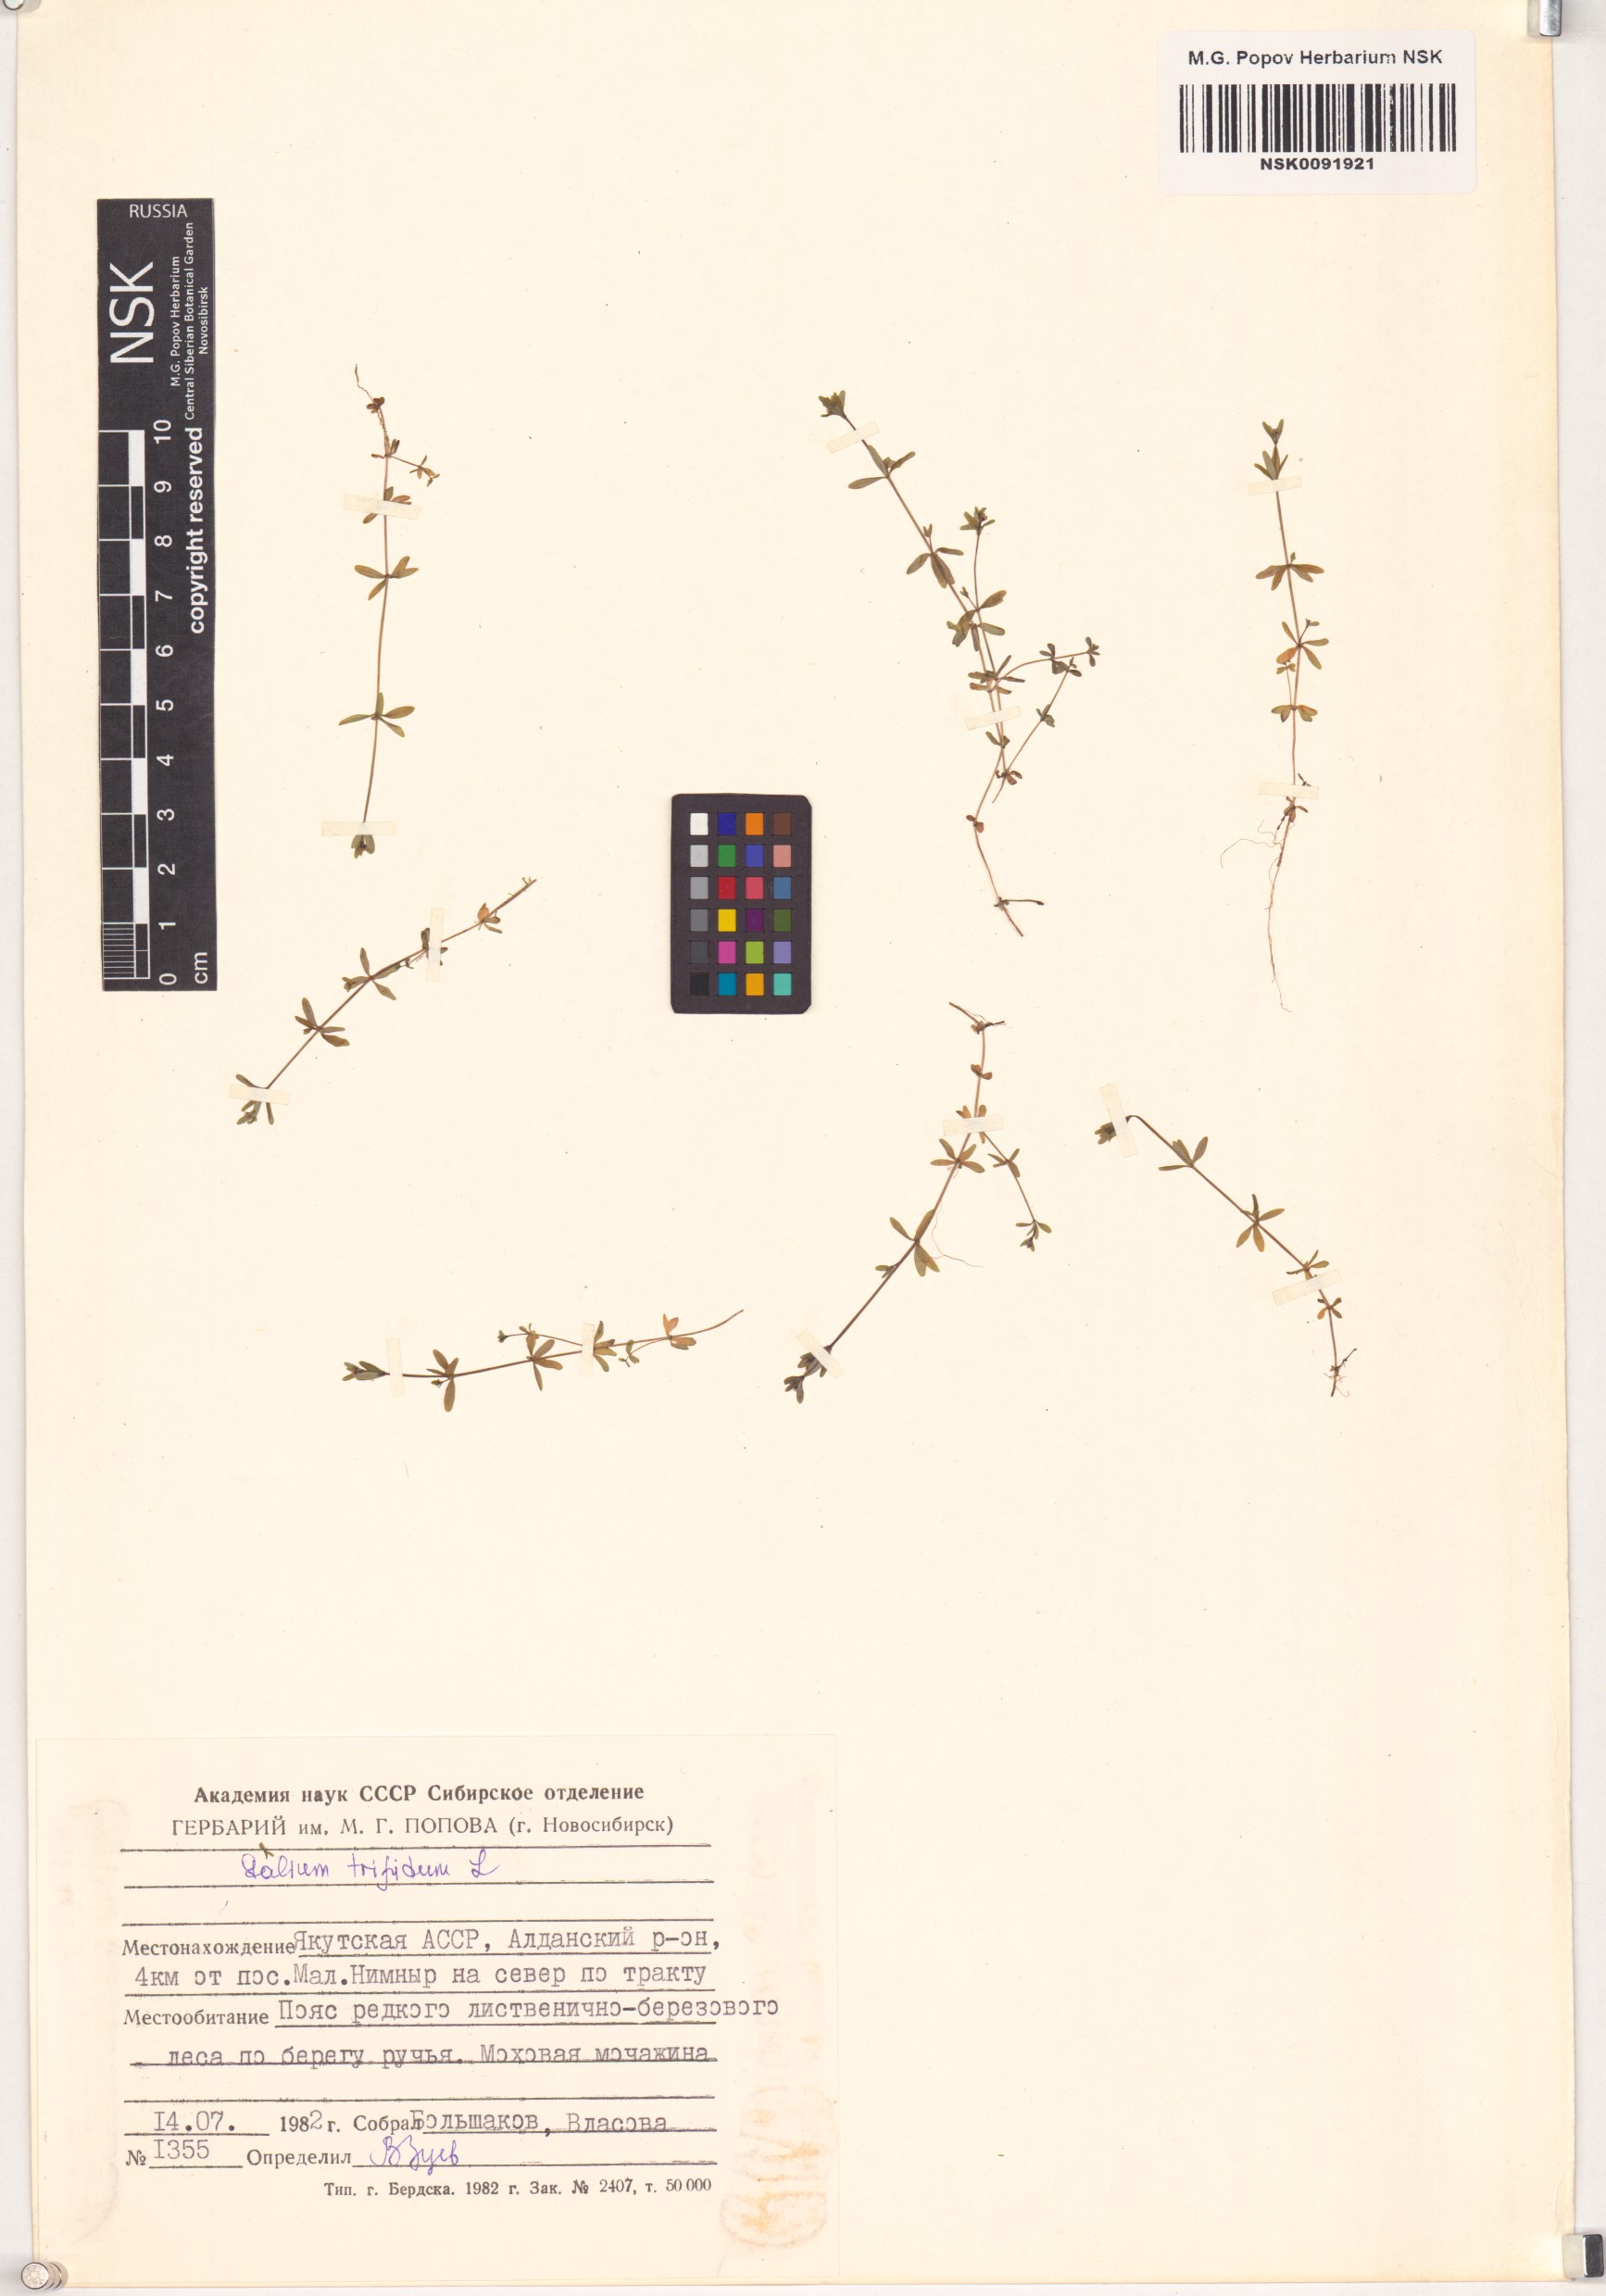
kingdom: Plantae
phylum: Tracheophyta
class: Magnoliopsida
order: Gentianales
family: Rubiaceae
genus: Galium
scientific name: Galium trifidum
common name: Small bedstraw
